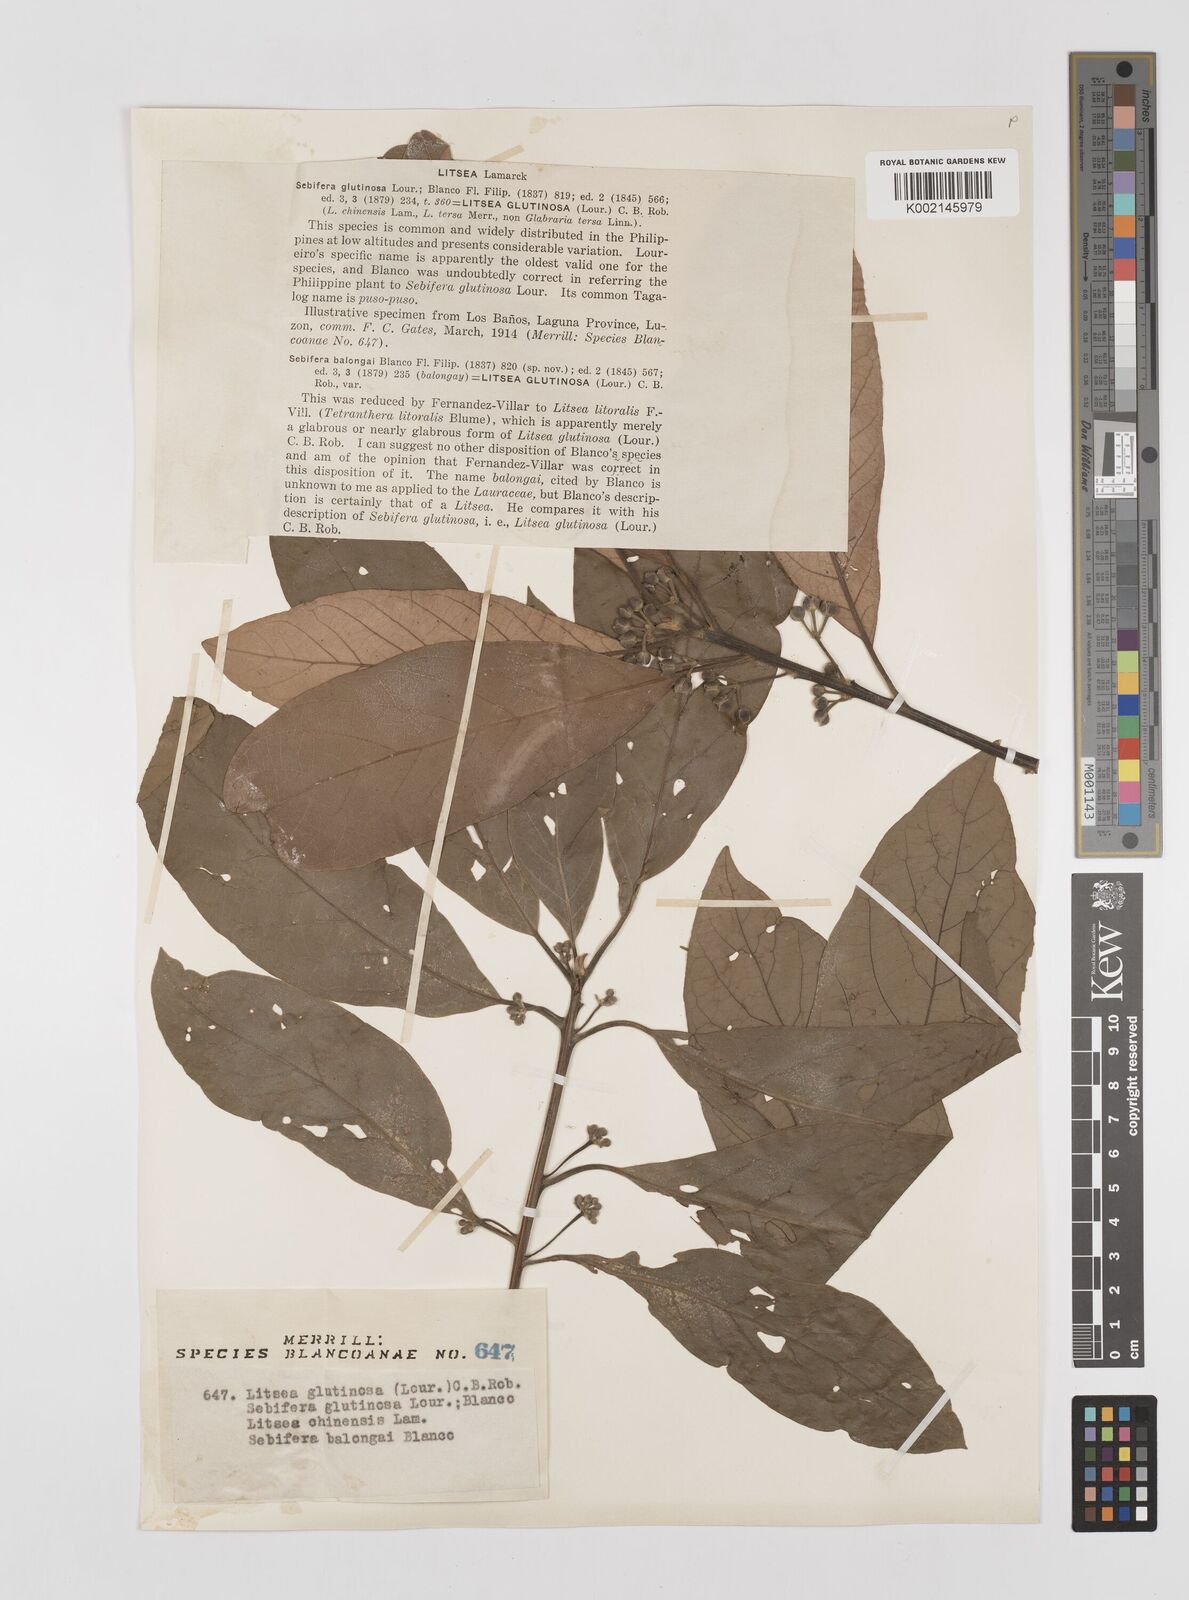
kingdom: Plantae
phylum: Tracheophyta
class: Magnoliopsida
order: Laurales
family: Lauraceae
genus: Litsea
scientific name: Litsea glutinosa
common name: Indian-laurel
